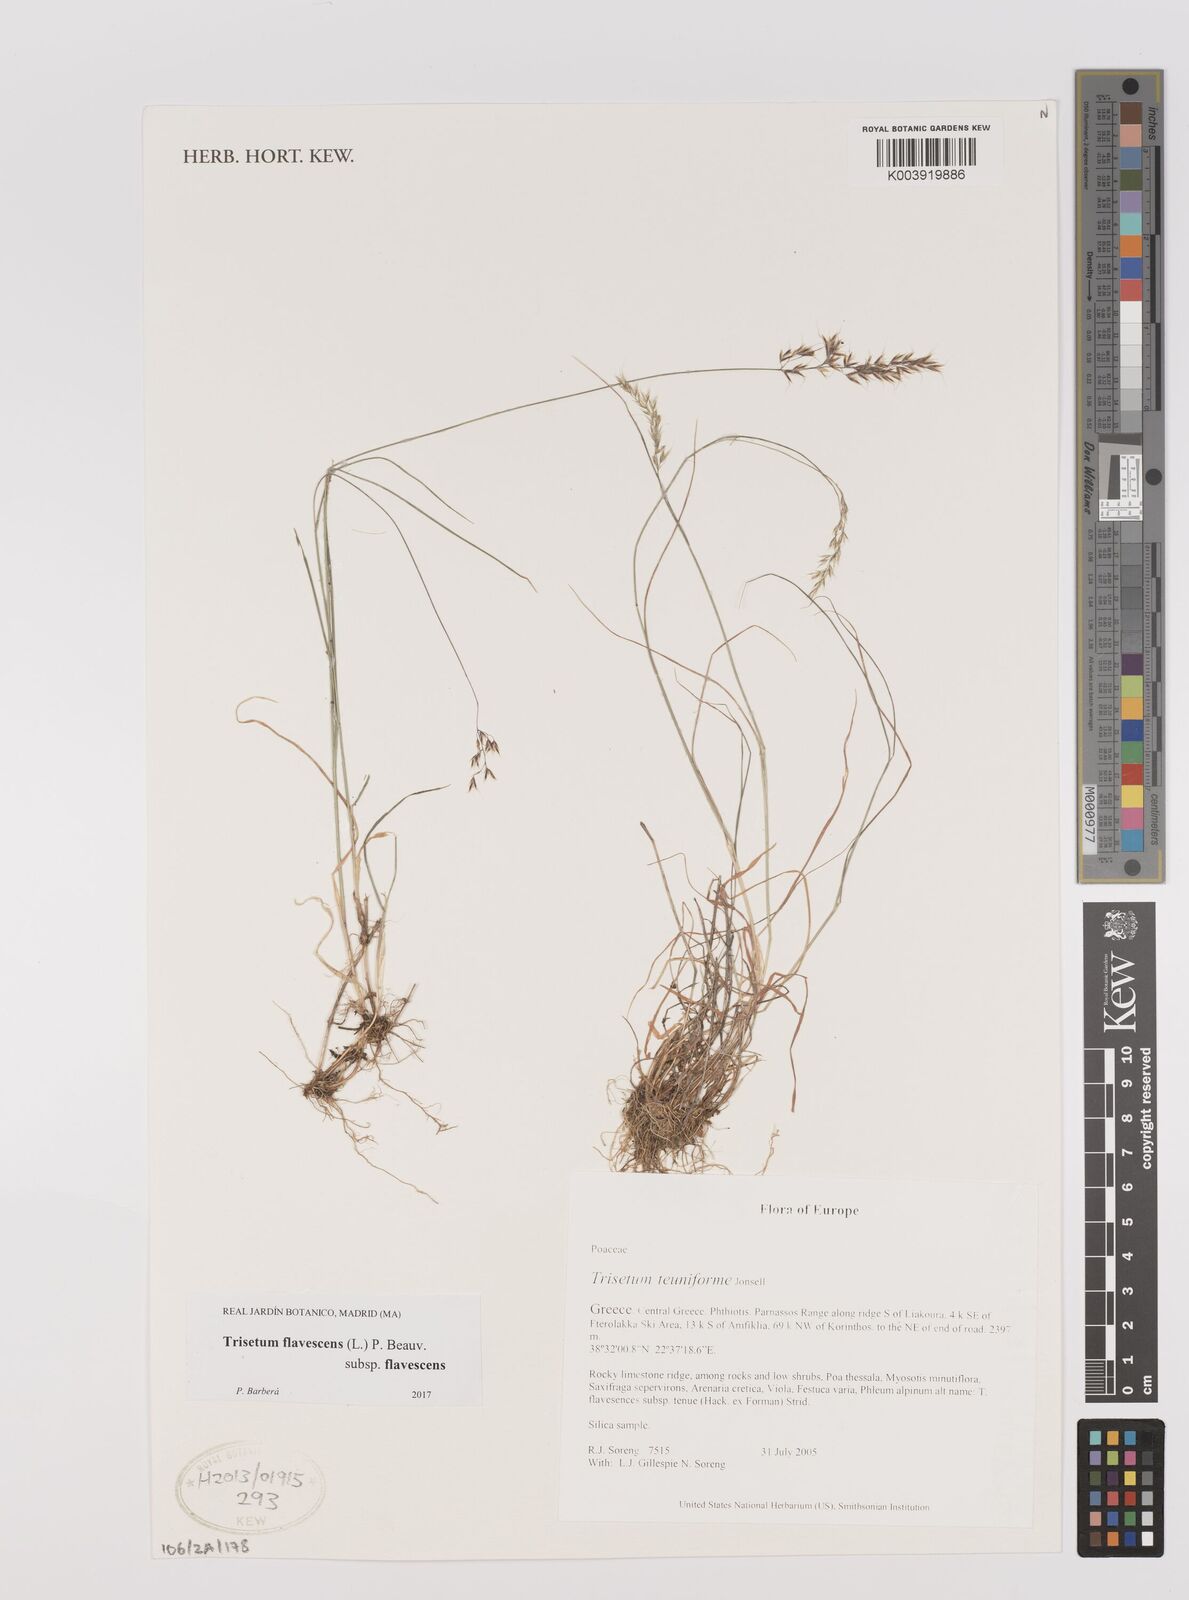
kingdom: Plantae
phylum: Tracheophyta
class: Liliopsida
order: Poales
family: Poaceae
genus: Trisetum
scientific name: Trisetum flavescens
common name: Yellow oat-grass
